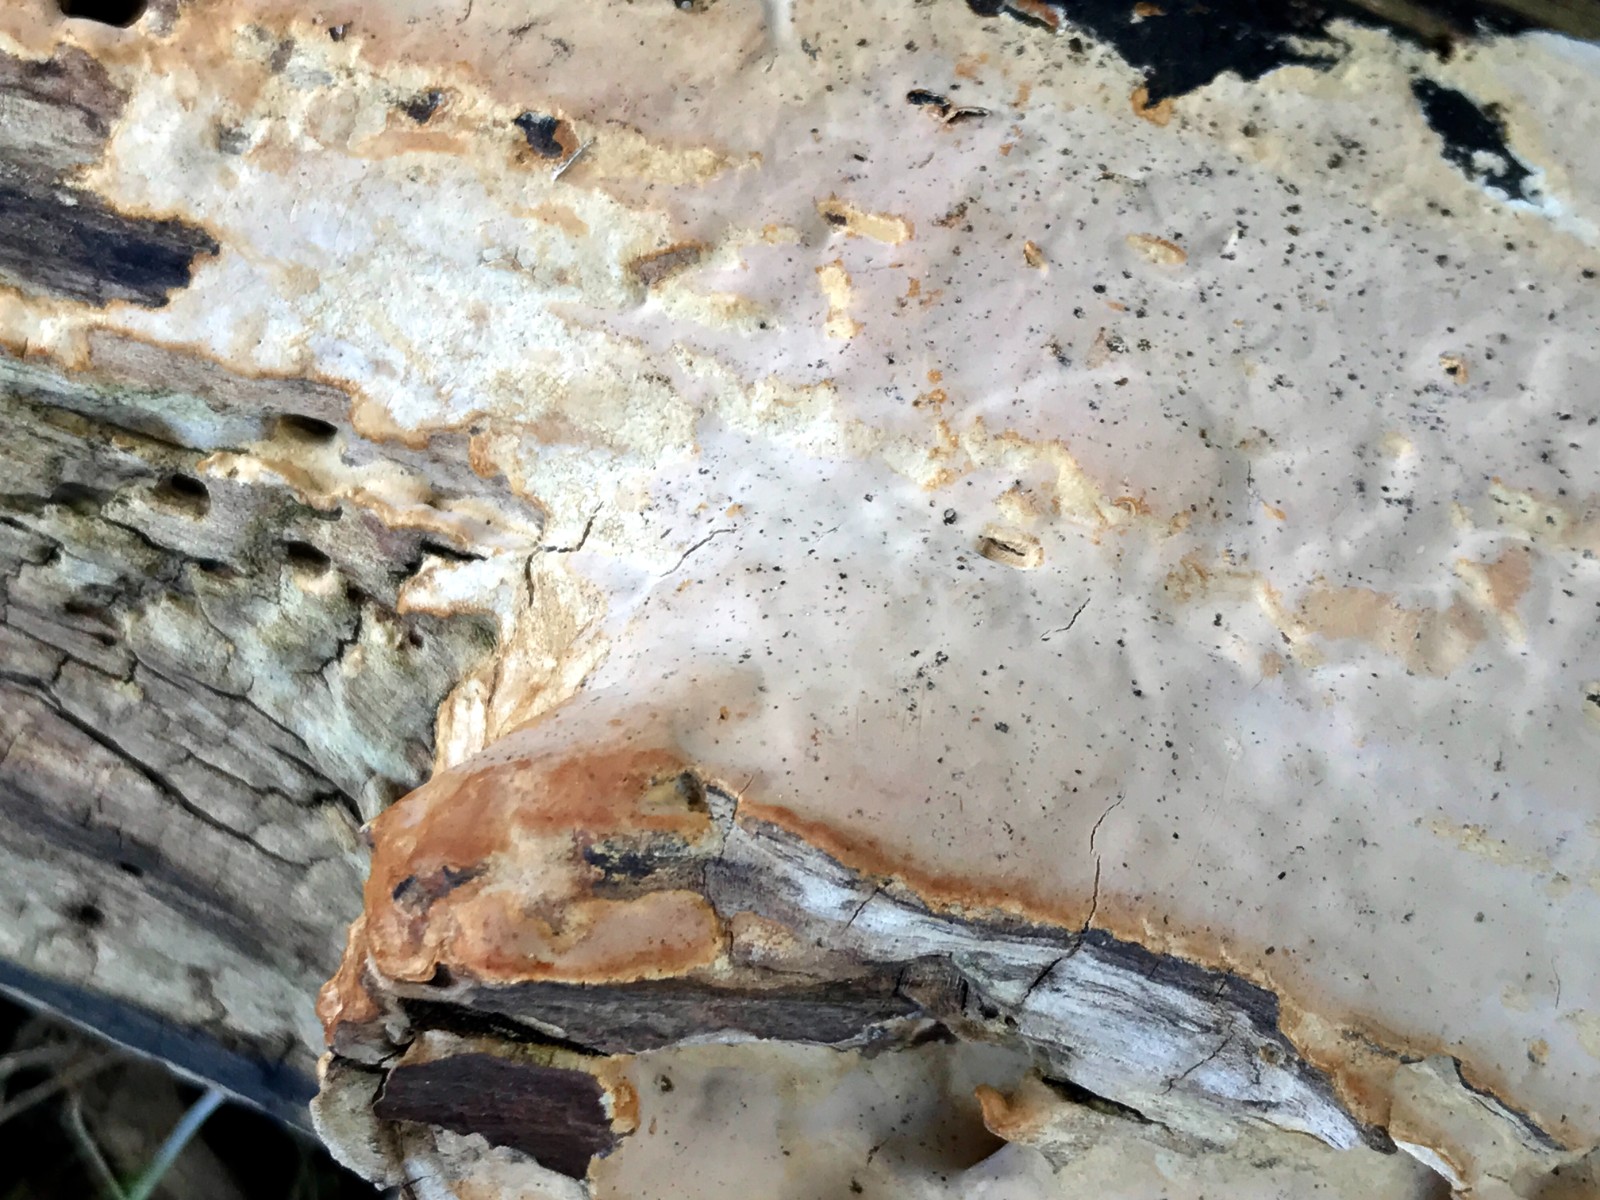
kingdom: Fungi
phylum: Basidiomycota
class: Agaricomycetes
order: Russulales
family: Peniophoraceae
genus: Scytinostroma
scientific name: Scytinostroma hemidichophyticum
